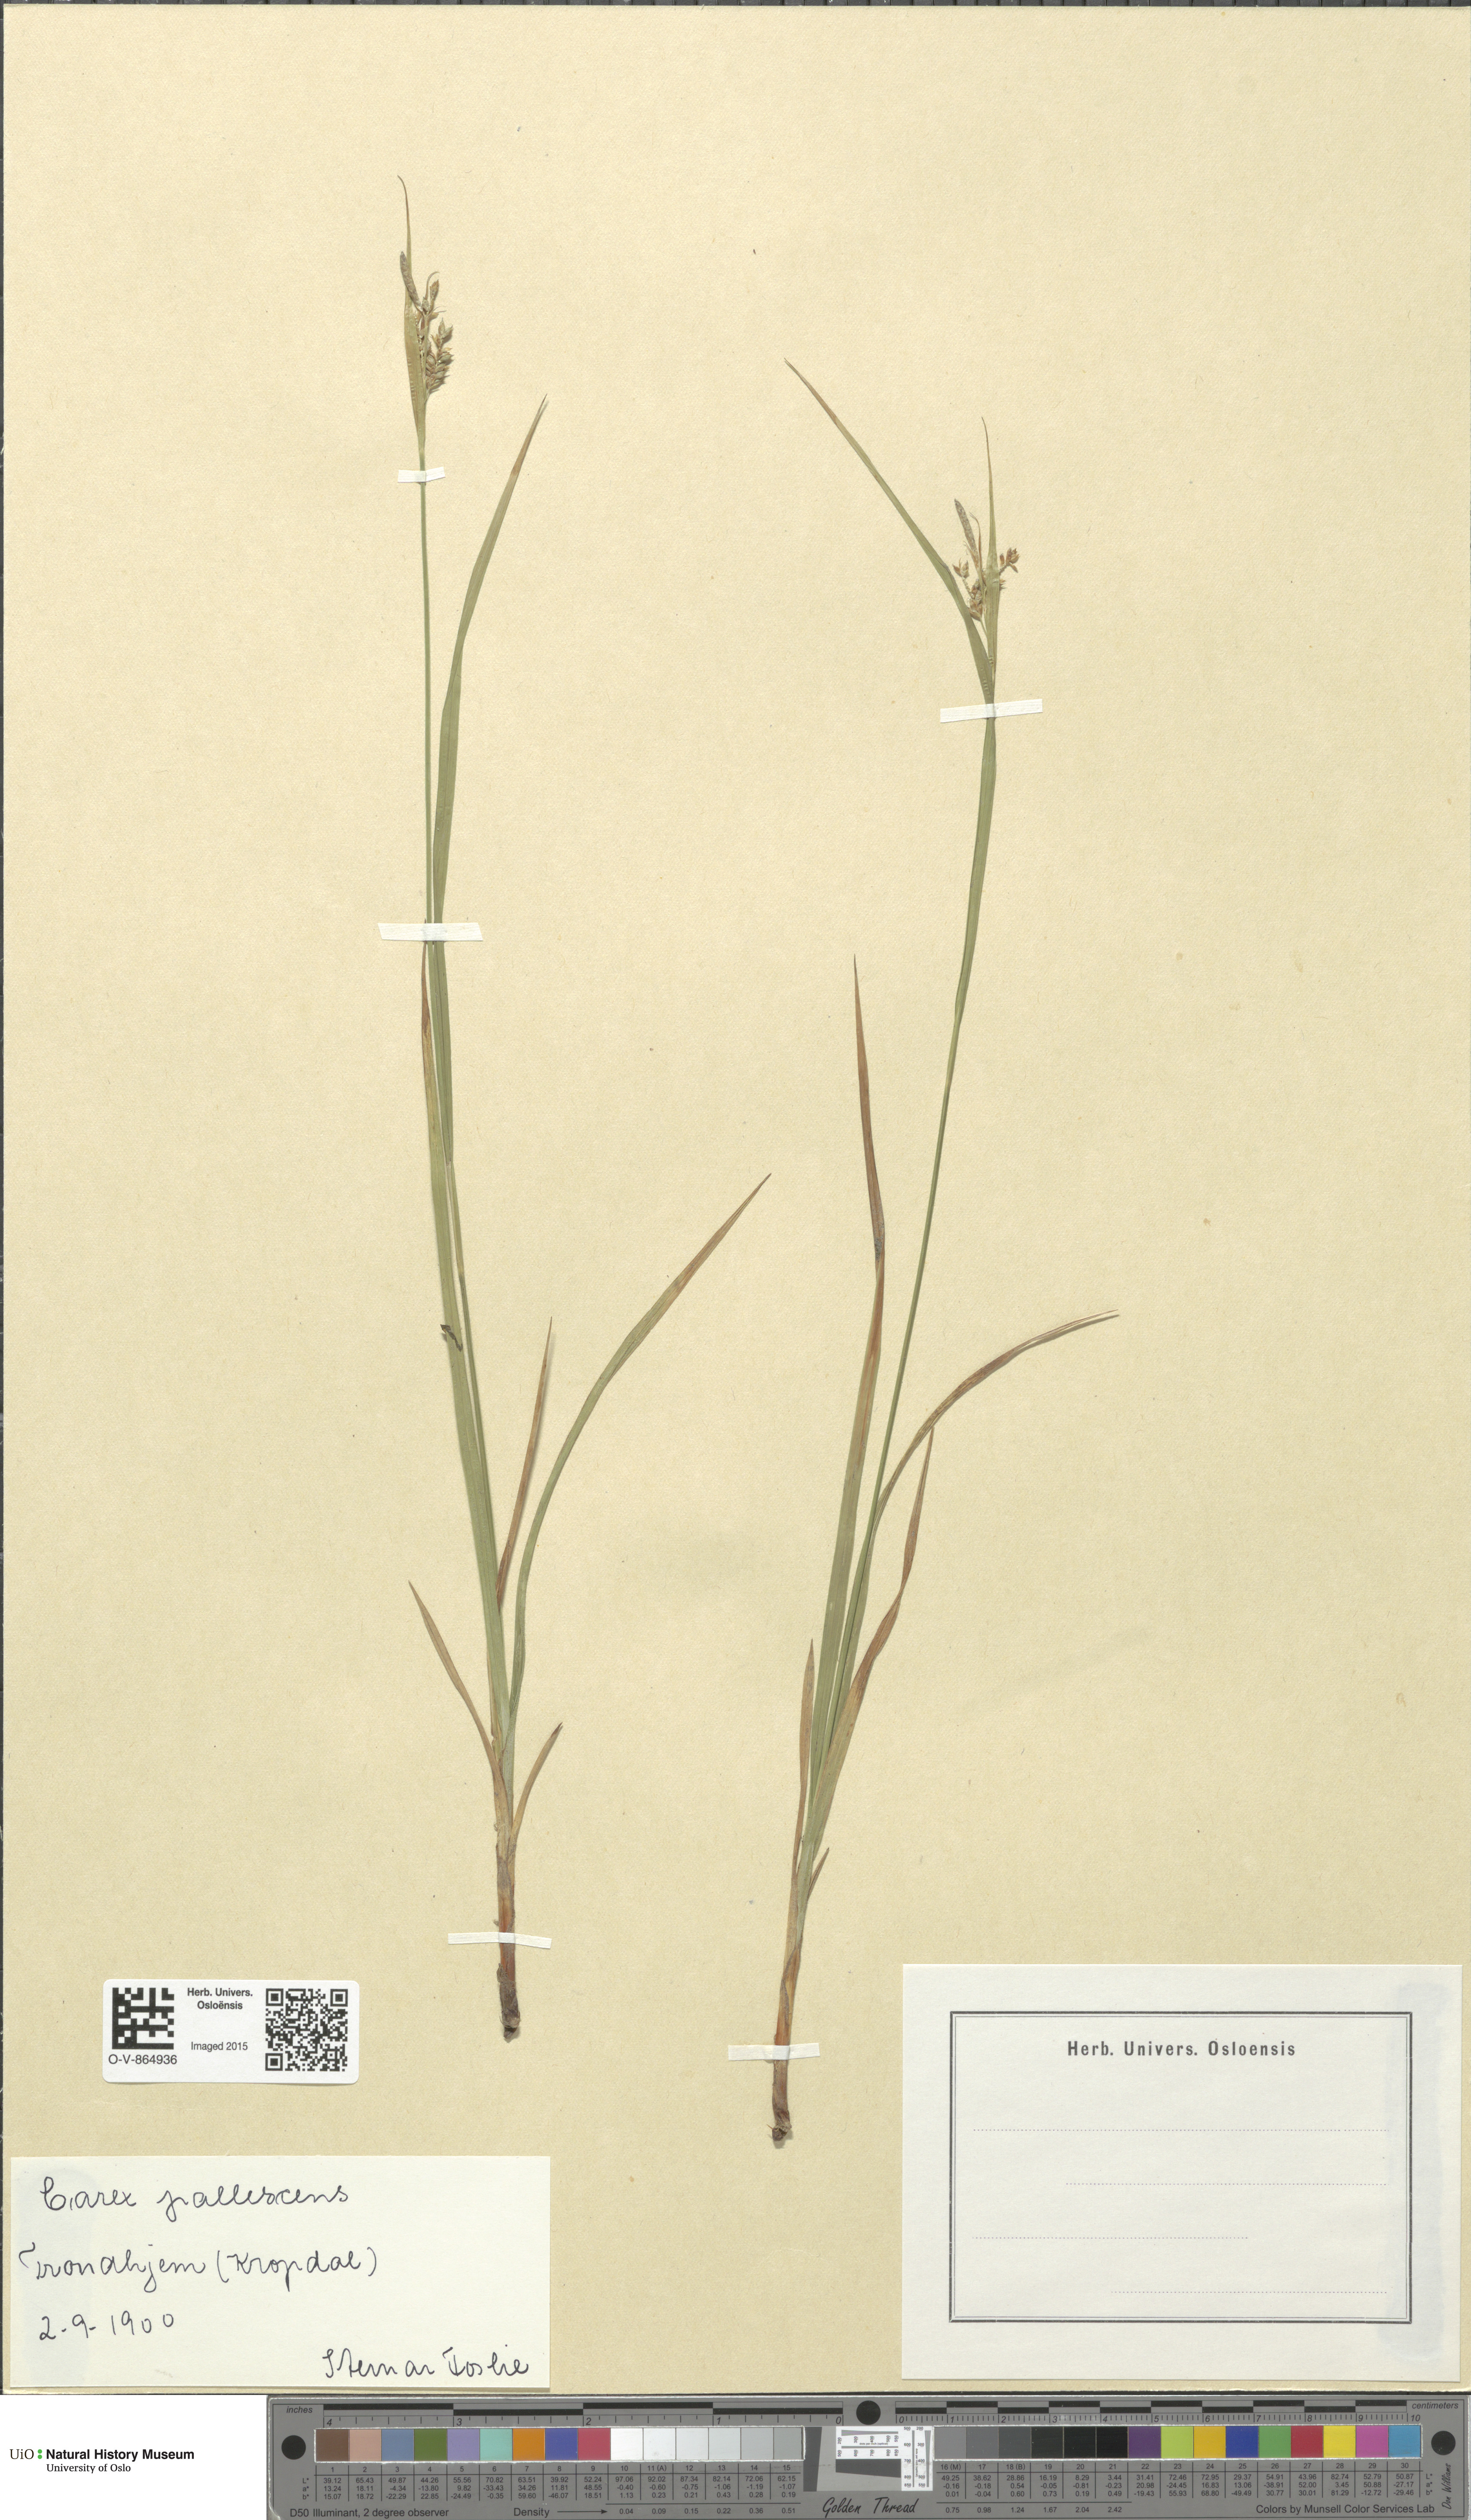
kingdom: Plantae
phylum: Tracheophyta
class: Liliopsida
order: Poales
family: Cyperaceae
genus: Carex
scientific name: Carex pallescens
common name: Pale sedge
